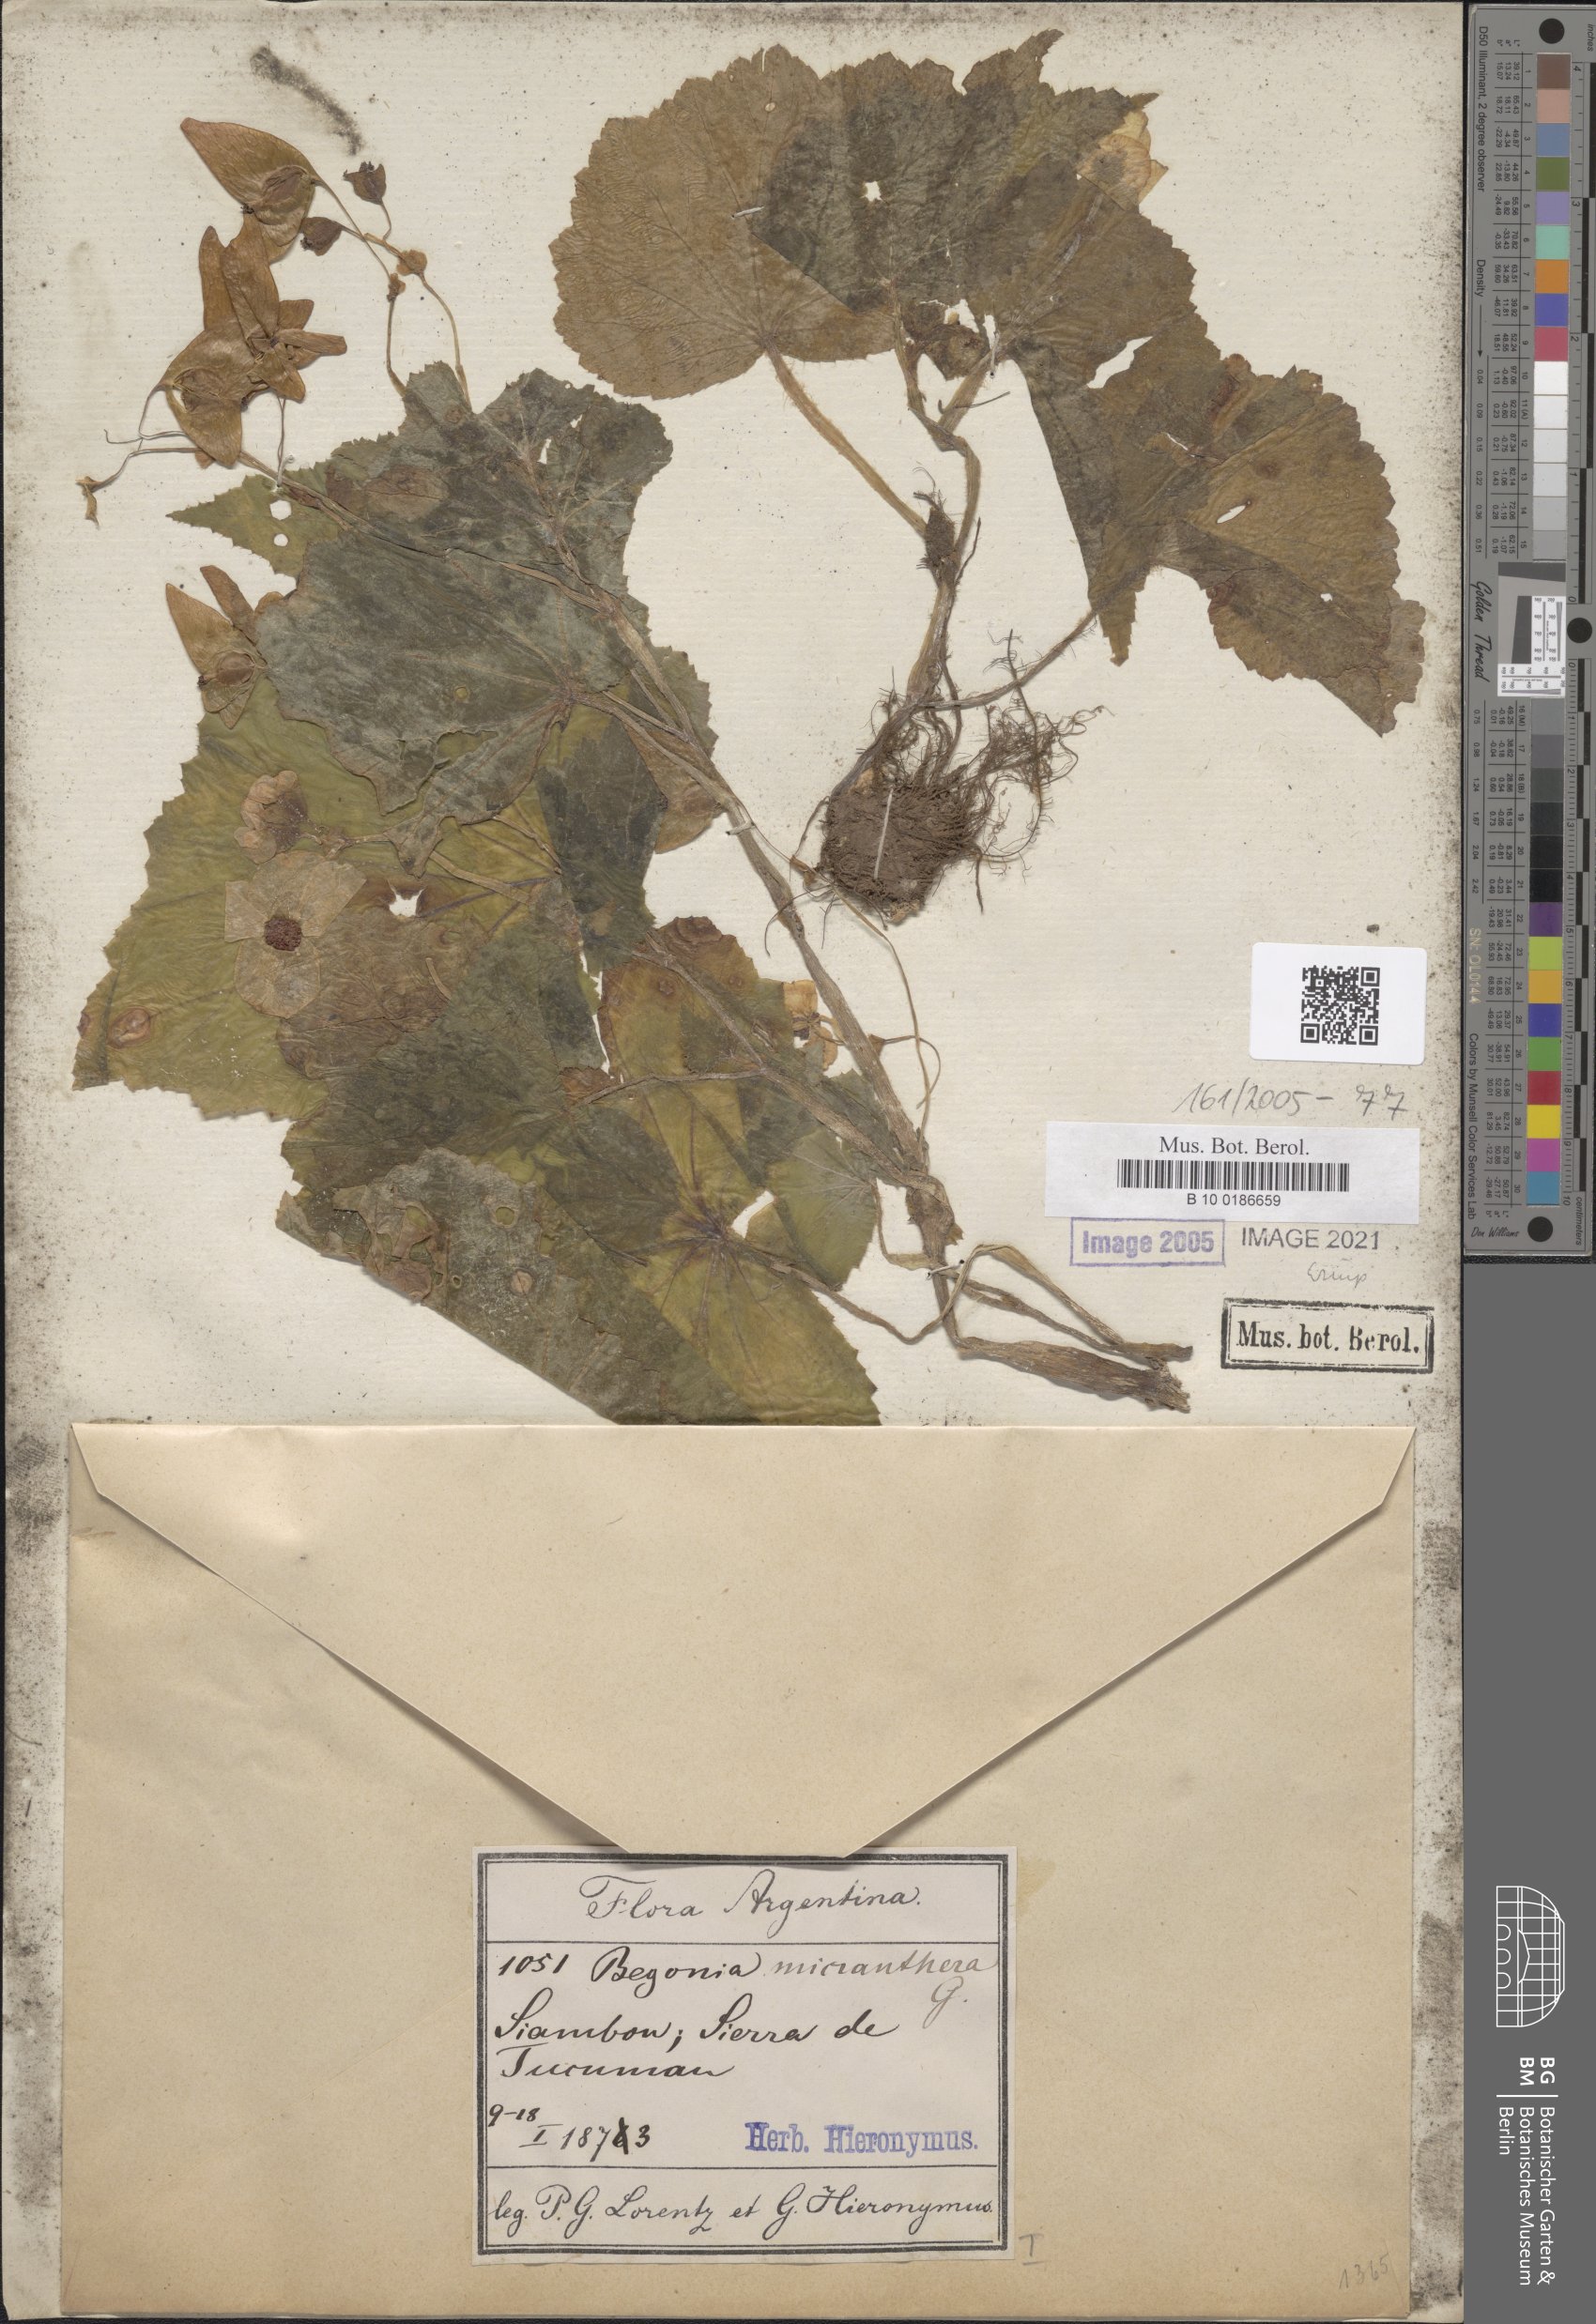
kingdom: Plantae
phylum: Tracheophyta
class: Magnoliopsida
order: Cucurbitales
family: Begoniaceae
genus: Begonia
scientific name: Begonia micranthera
